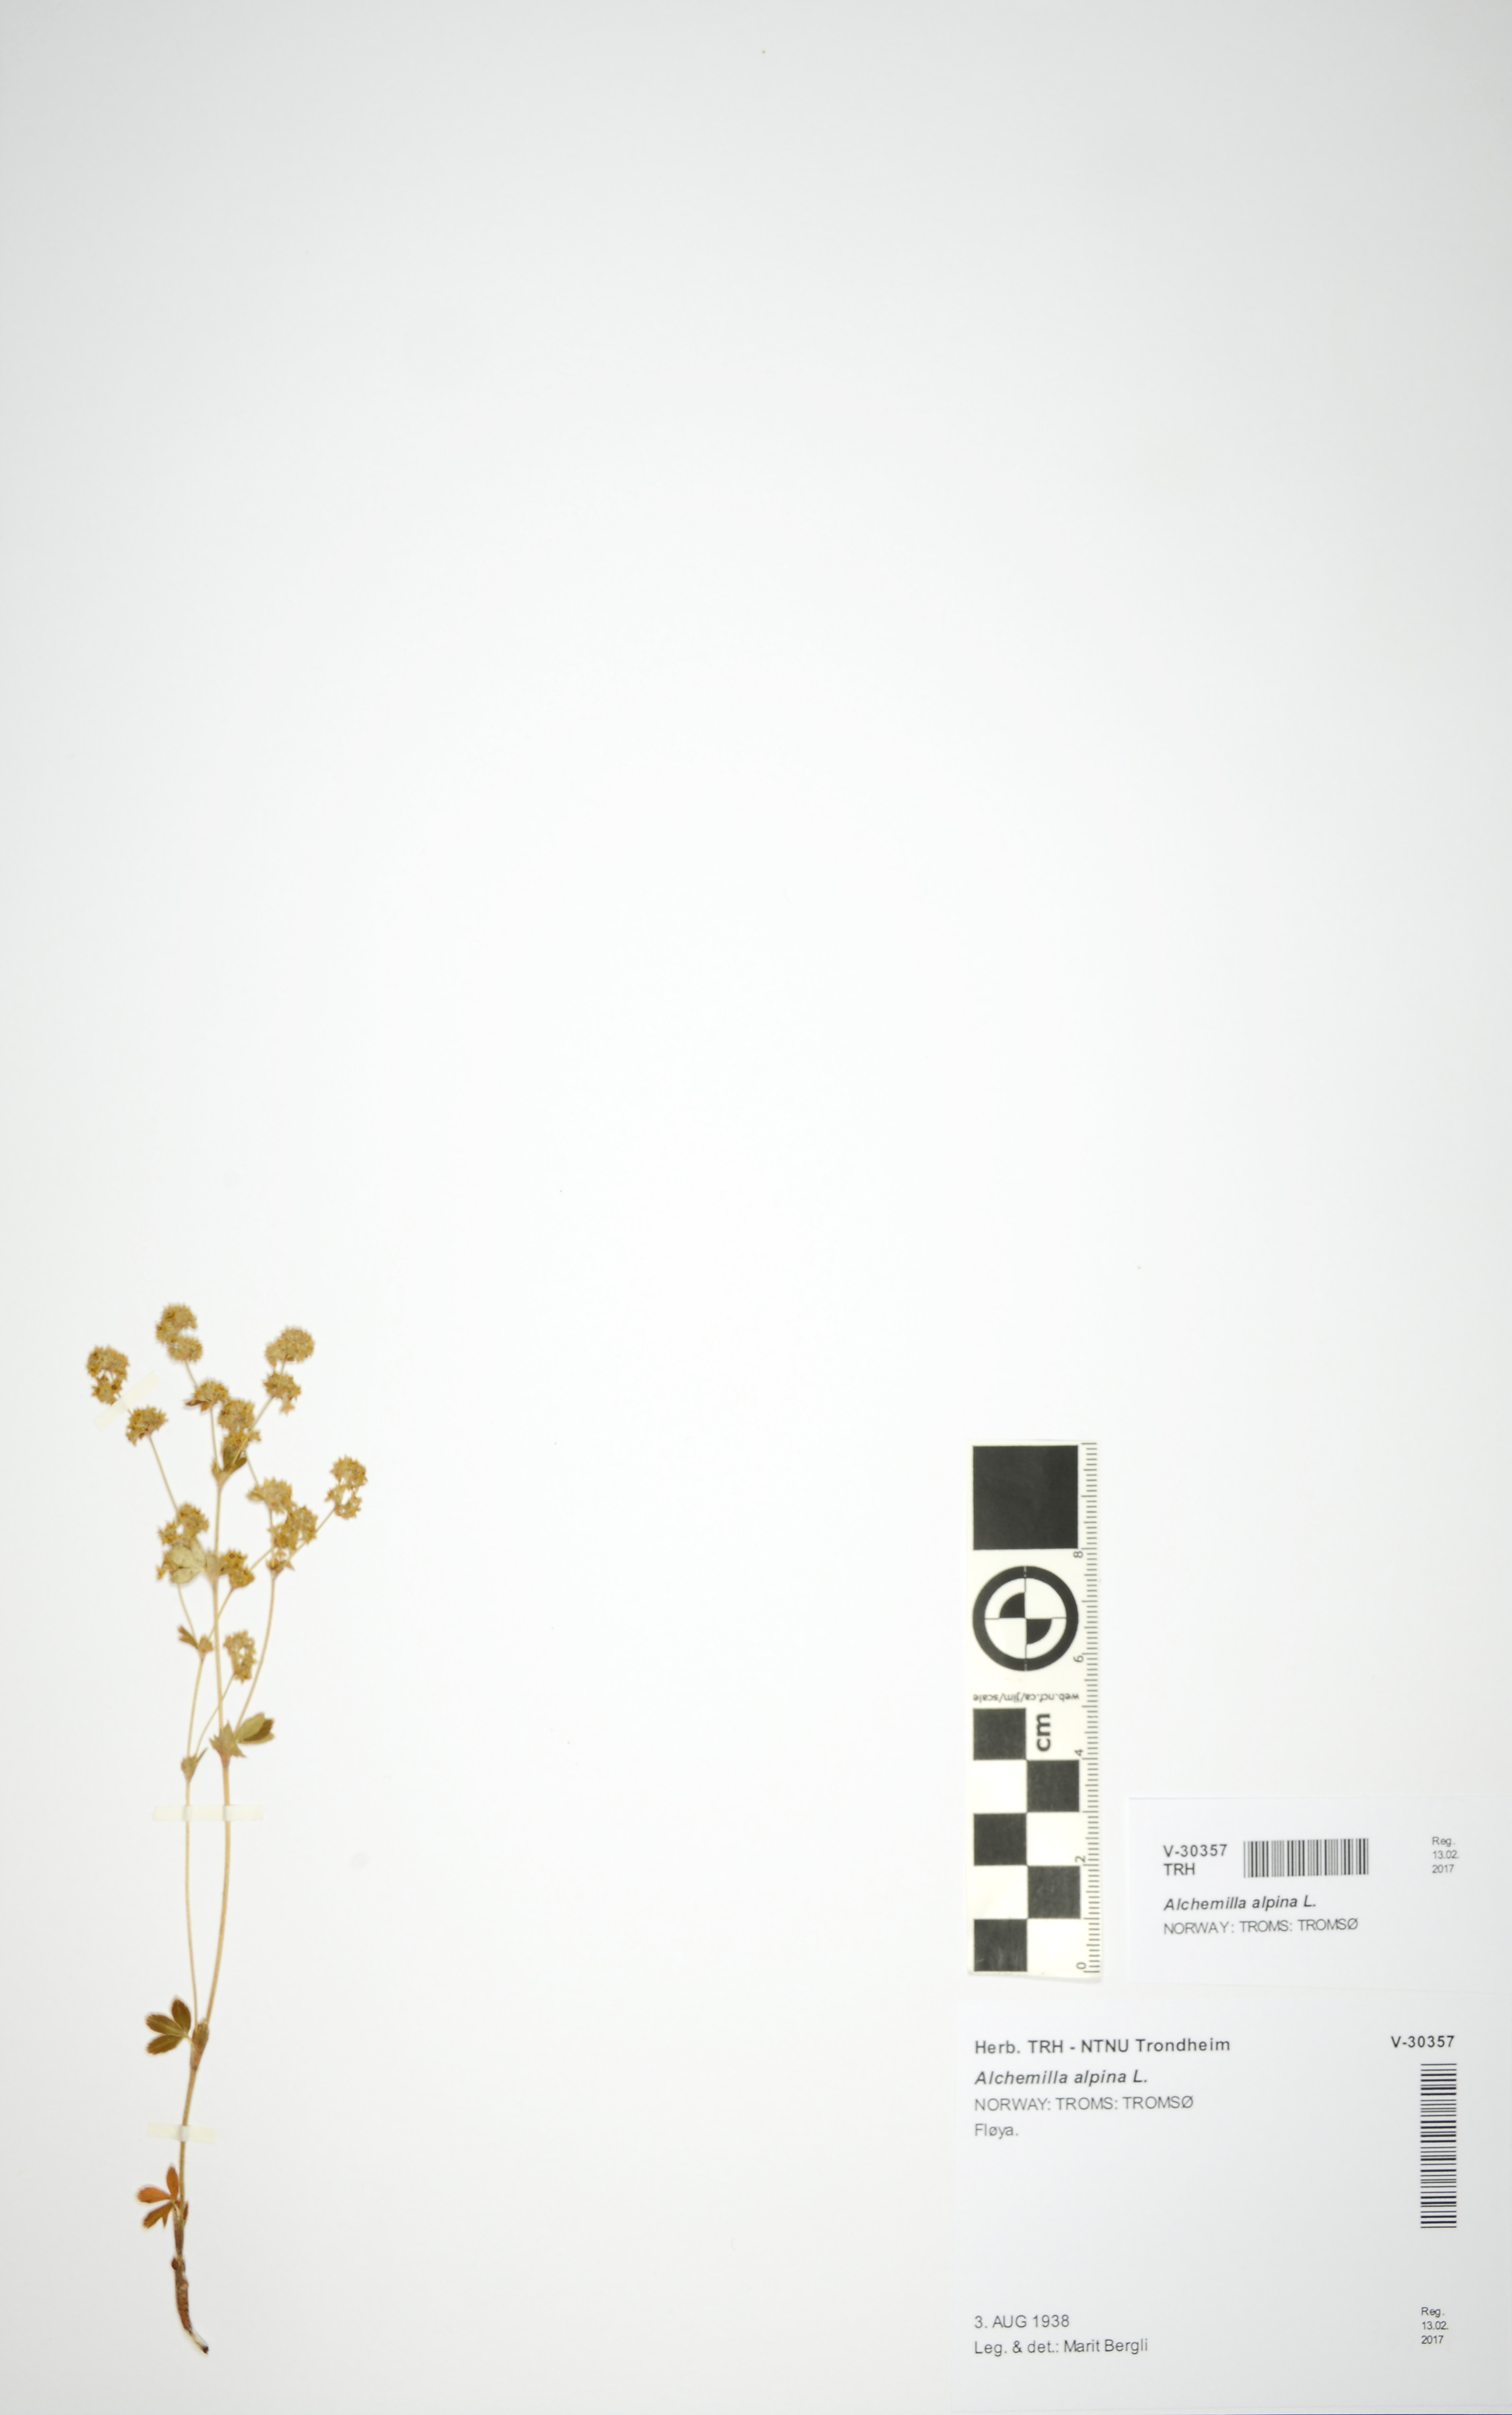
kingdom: Plantae
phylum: Tracheophyta
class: Magnoliopsida
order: Rosales
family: Rosaceae
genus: Alchemilla
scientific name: Alchemilla alpina
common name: Alpine lady's-mantle
